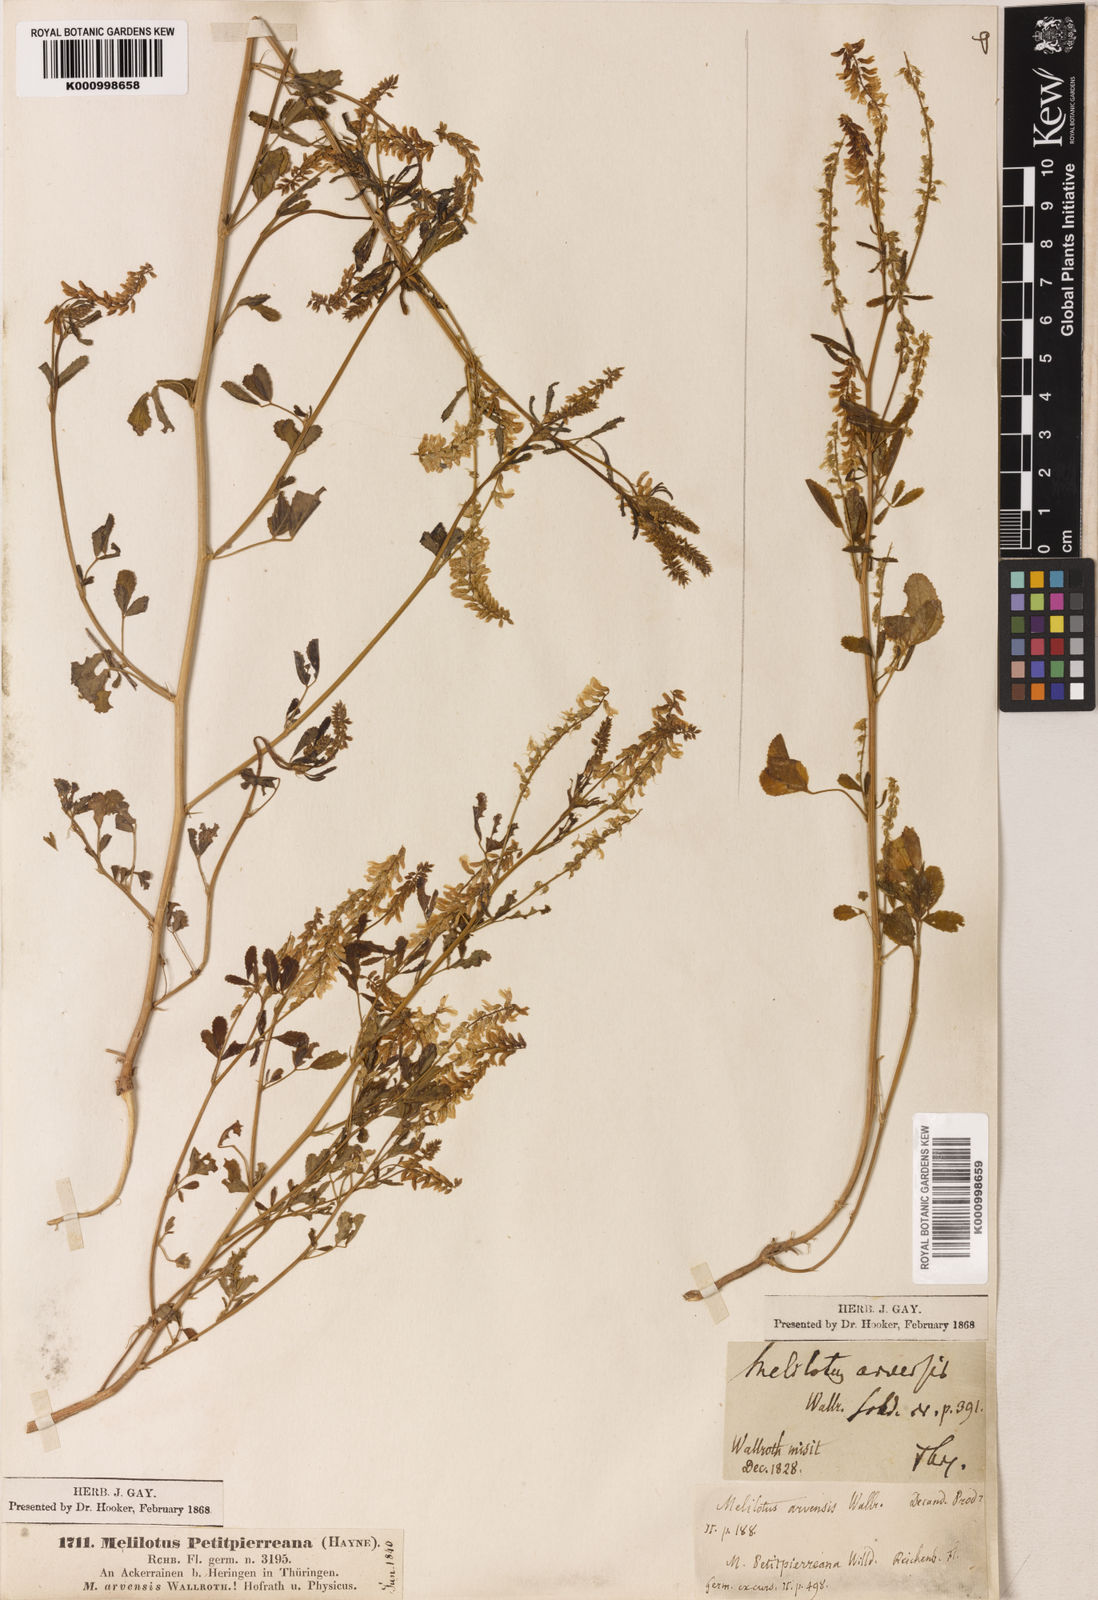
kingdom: Plantae
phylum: Tracheophyta
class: Magnoliopsida
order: Fabales
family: Fabaceae
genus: Melilotus
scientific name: Melilotus officinalis
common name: Sweetclover
